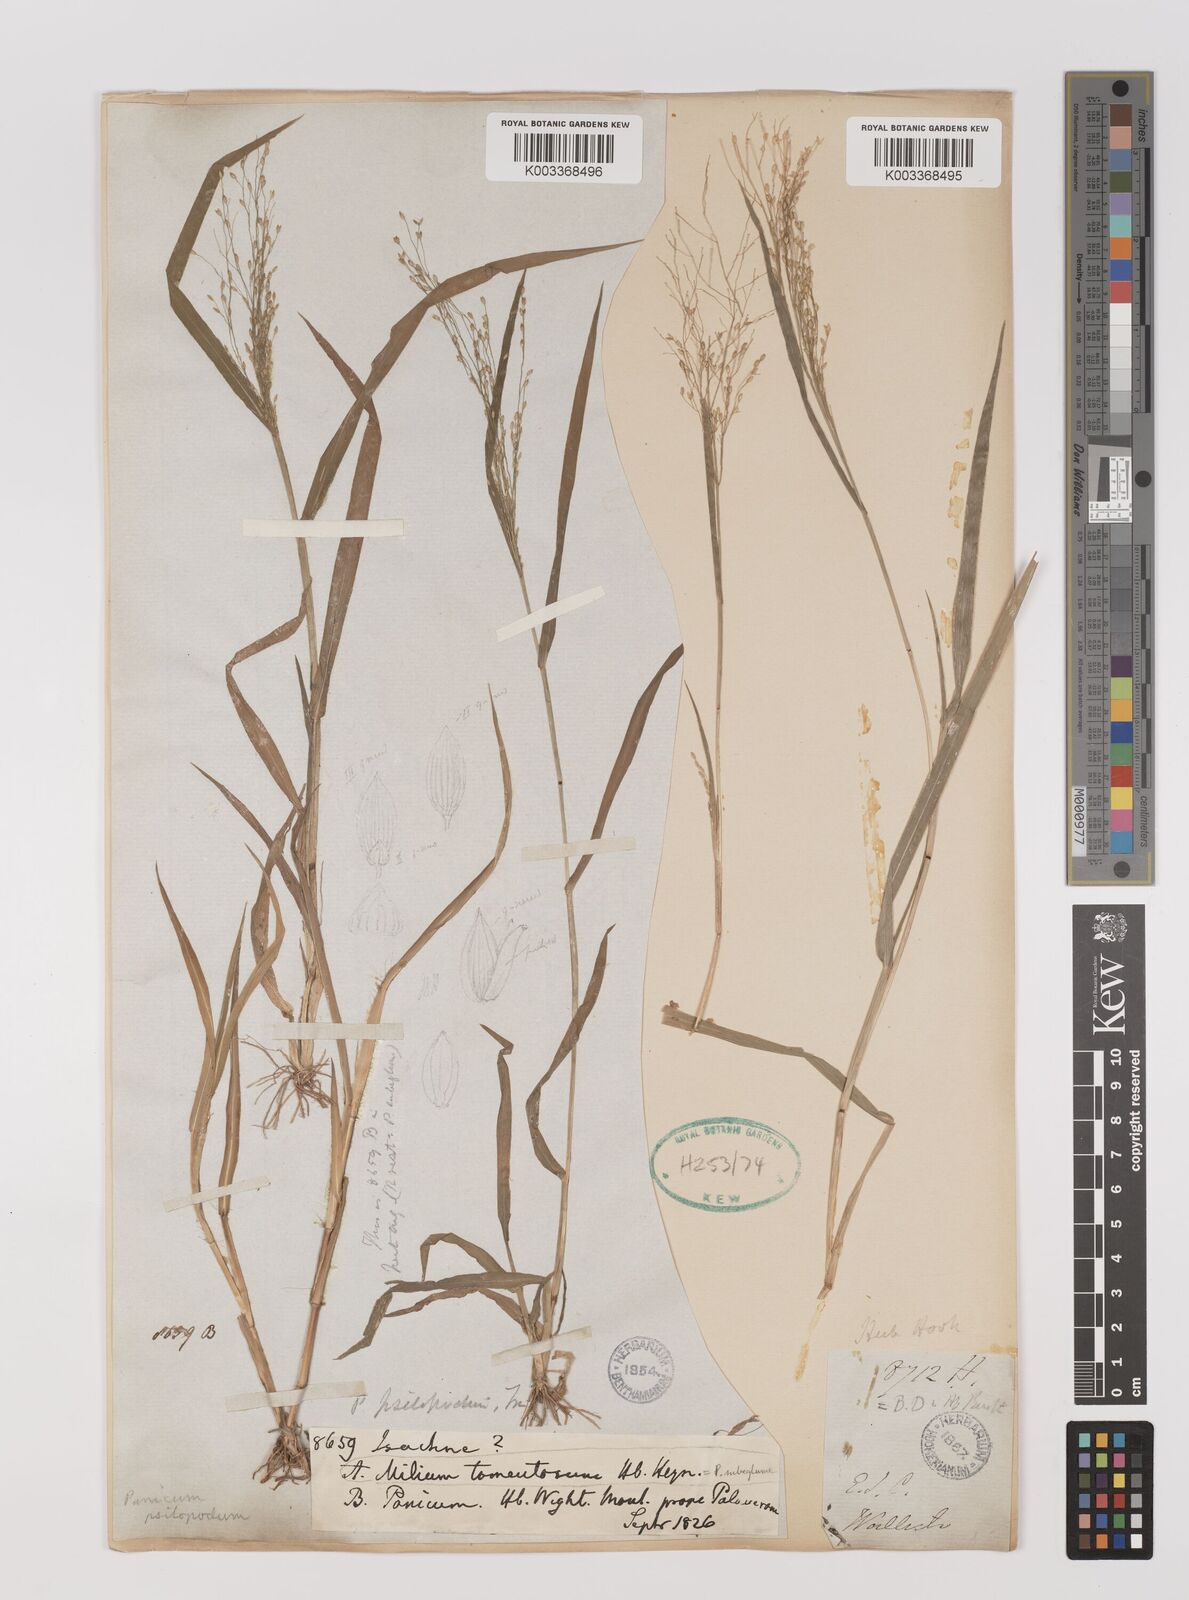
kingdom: Plantae
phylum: Tracheophyta
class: Liliopsida
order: Poales
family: Poaceae
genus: Panicum
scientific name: Panicum sumatrense
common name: Little millet
